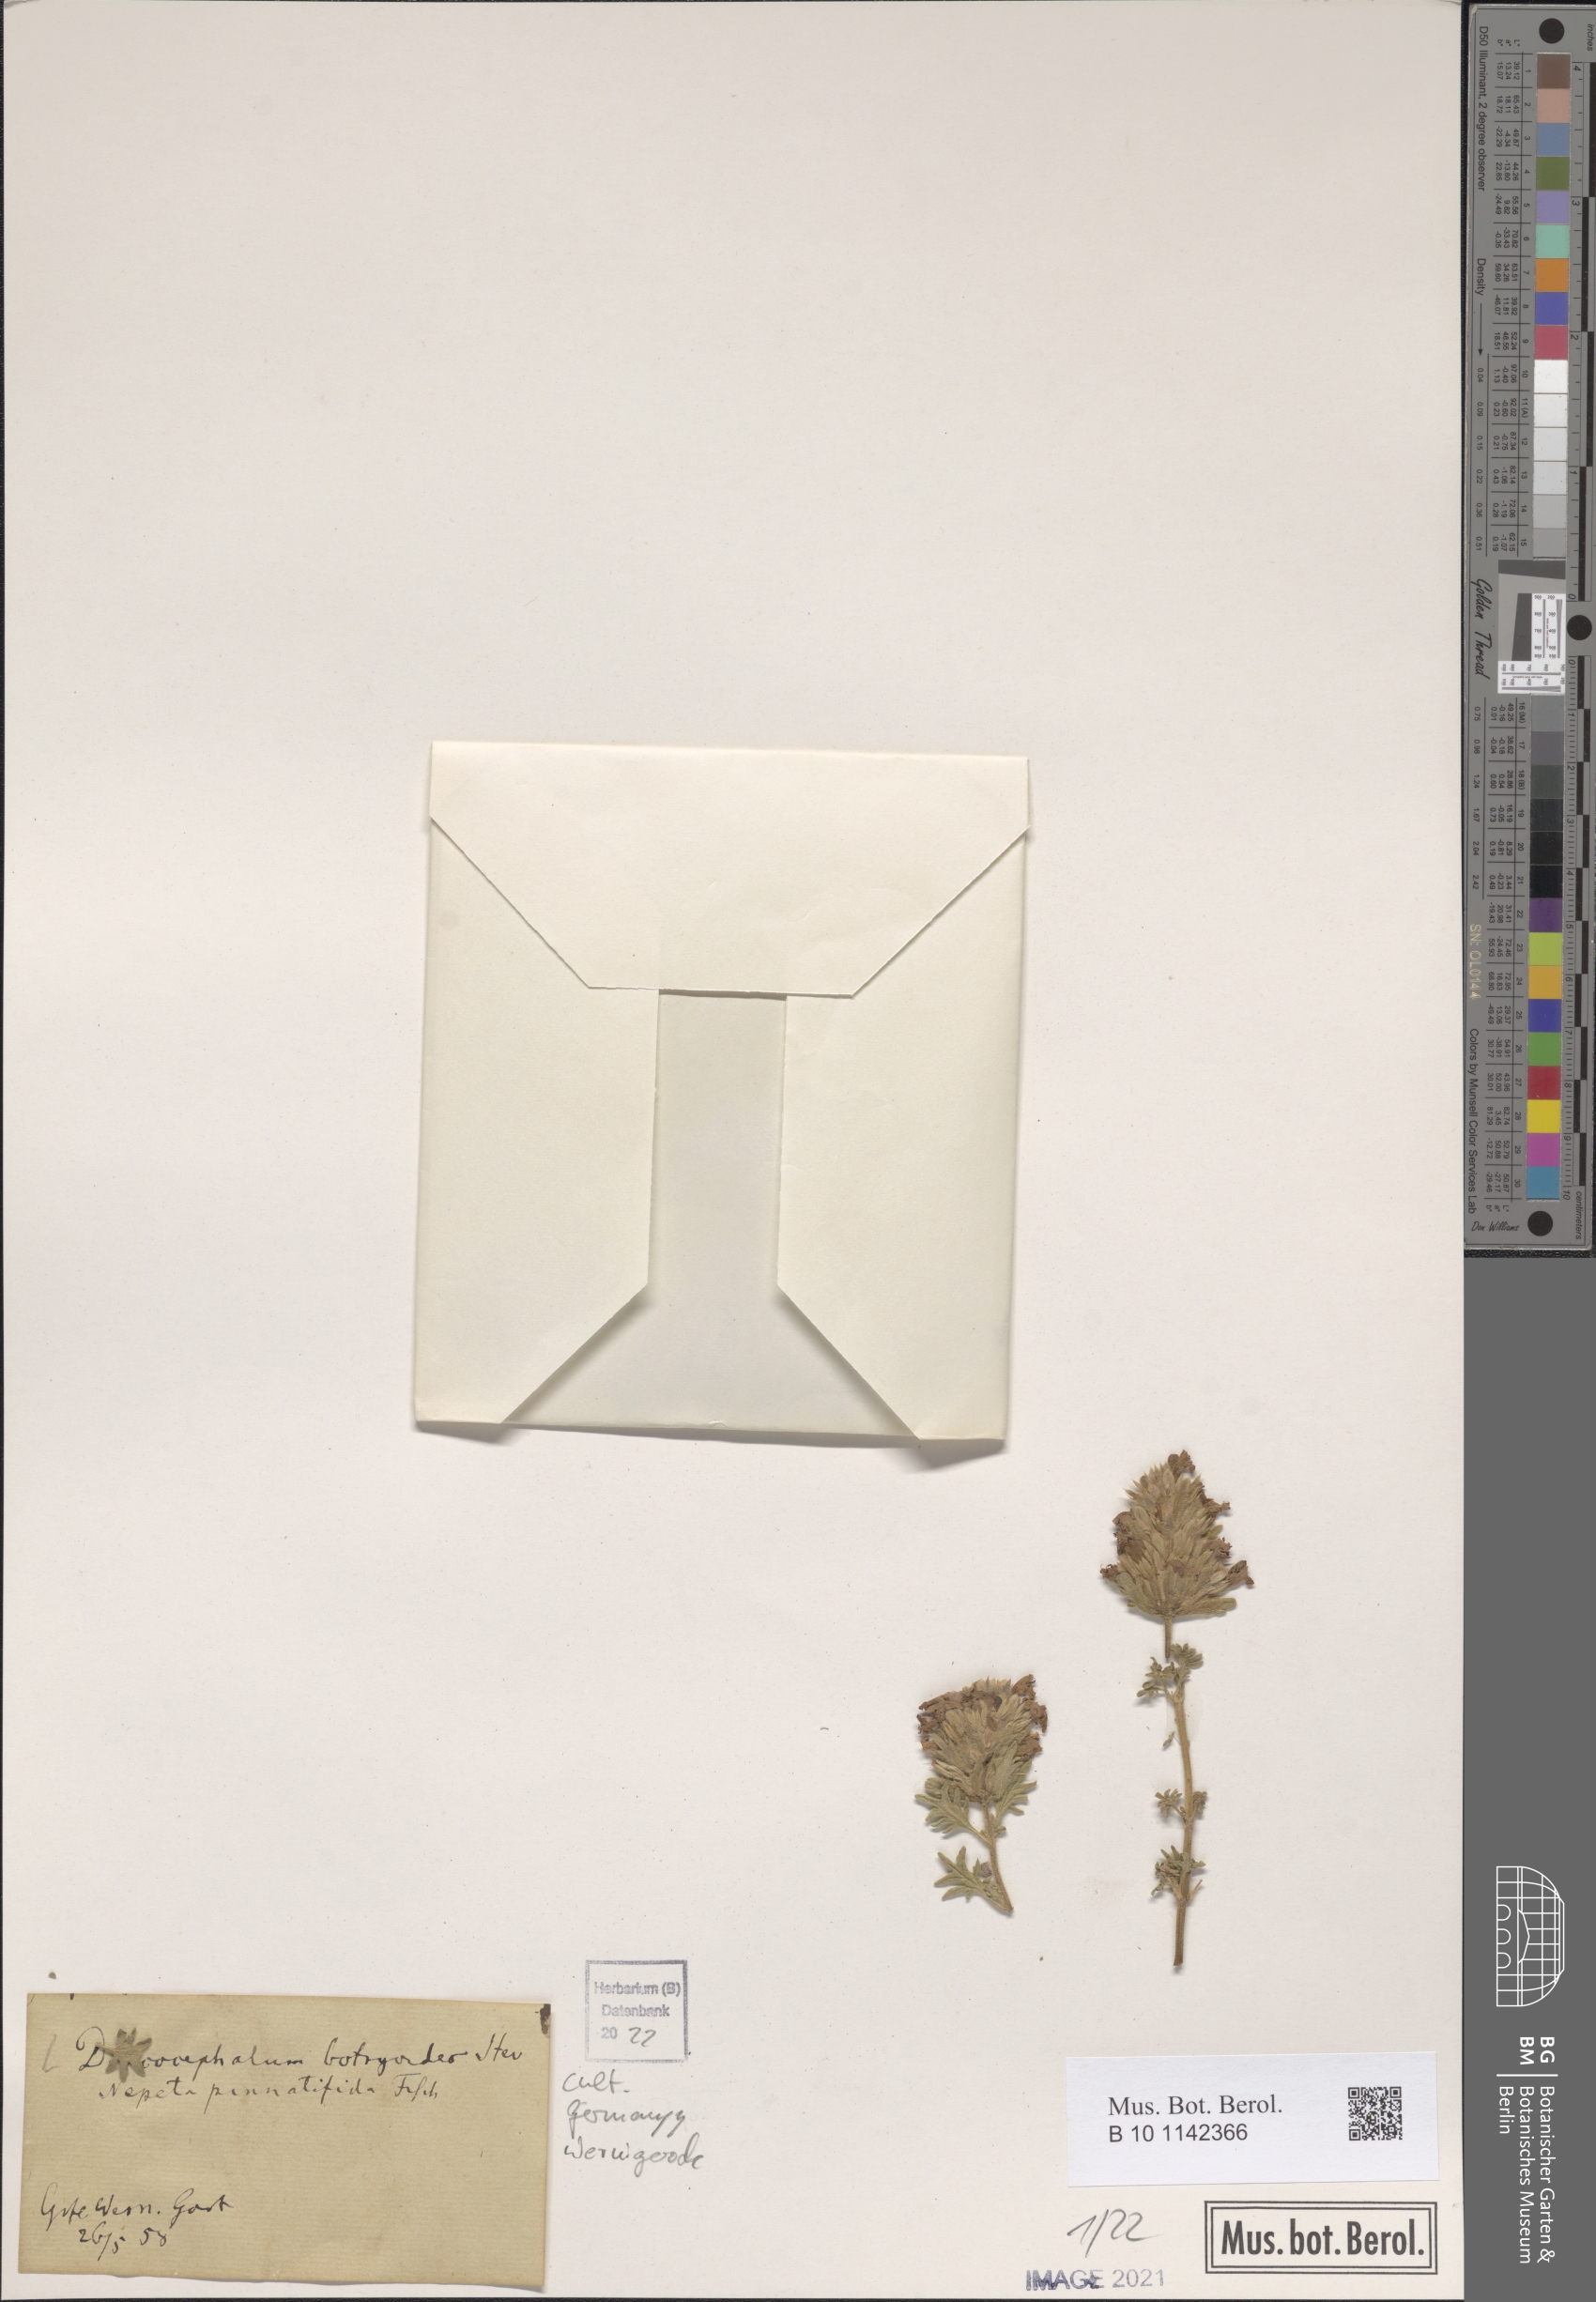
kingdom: Plantae
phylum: Tracheophyta
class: Magnoliopsida
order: Lamiales
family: Lamiaceae
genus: Dracocephalum
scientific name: Dracocephalum botryoides
